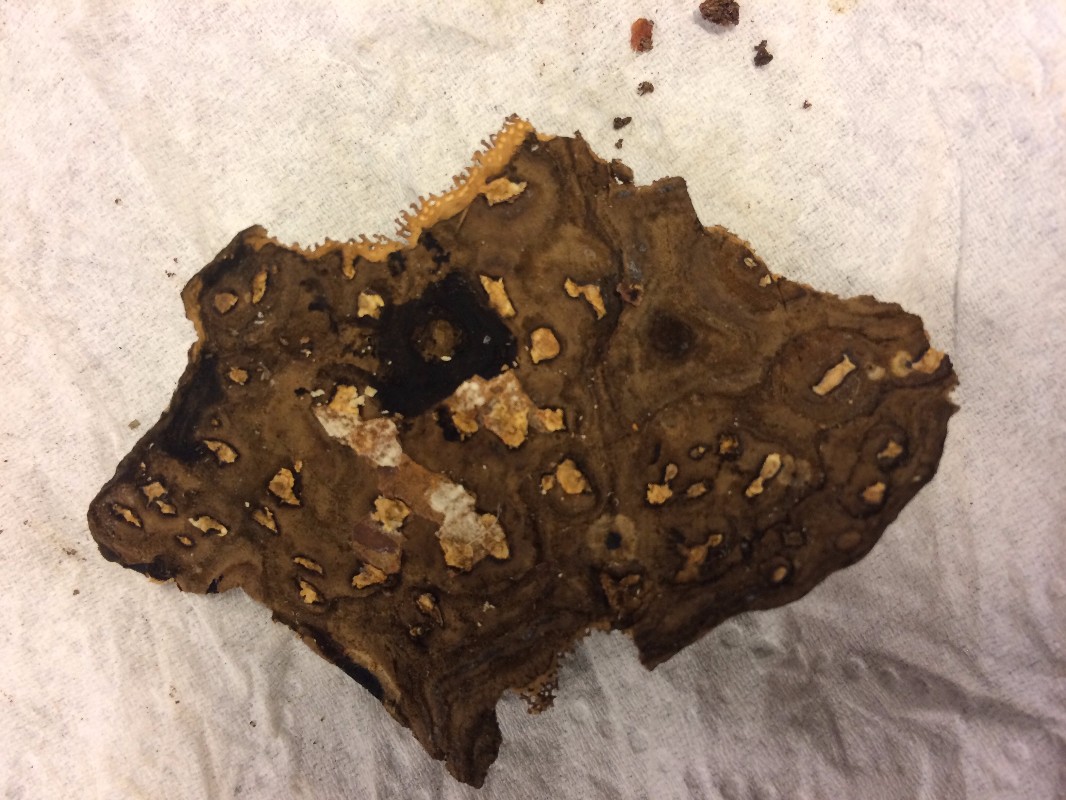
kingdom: Fungi
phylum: Basidiomycota
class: Agaricomycetes
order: Polyporales
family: Polyporaceae
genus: Podofomes
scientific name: Podofomes mollis
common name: blød begporesvamp
